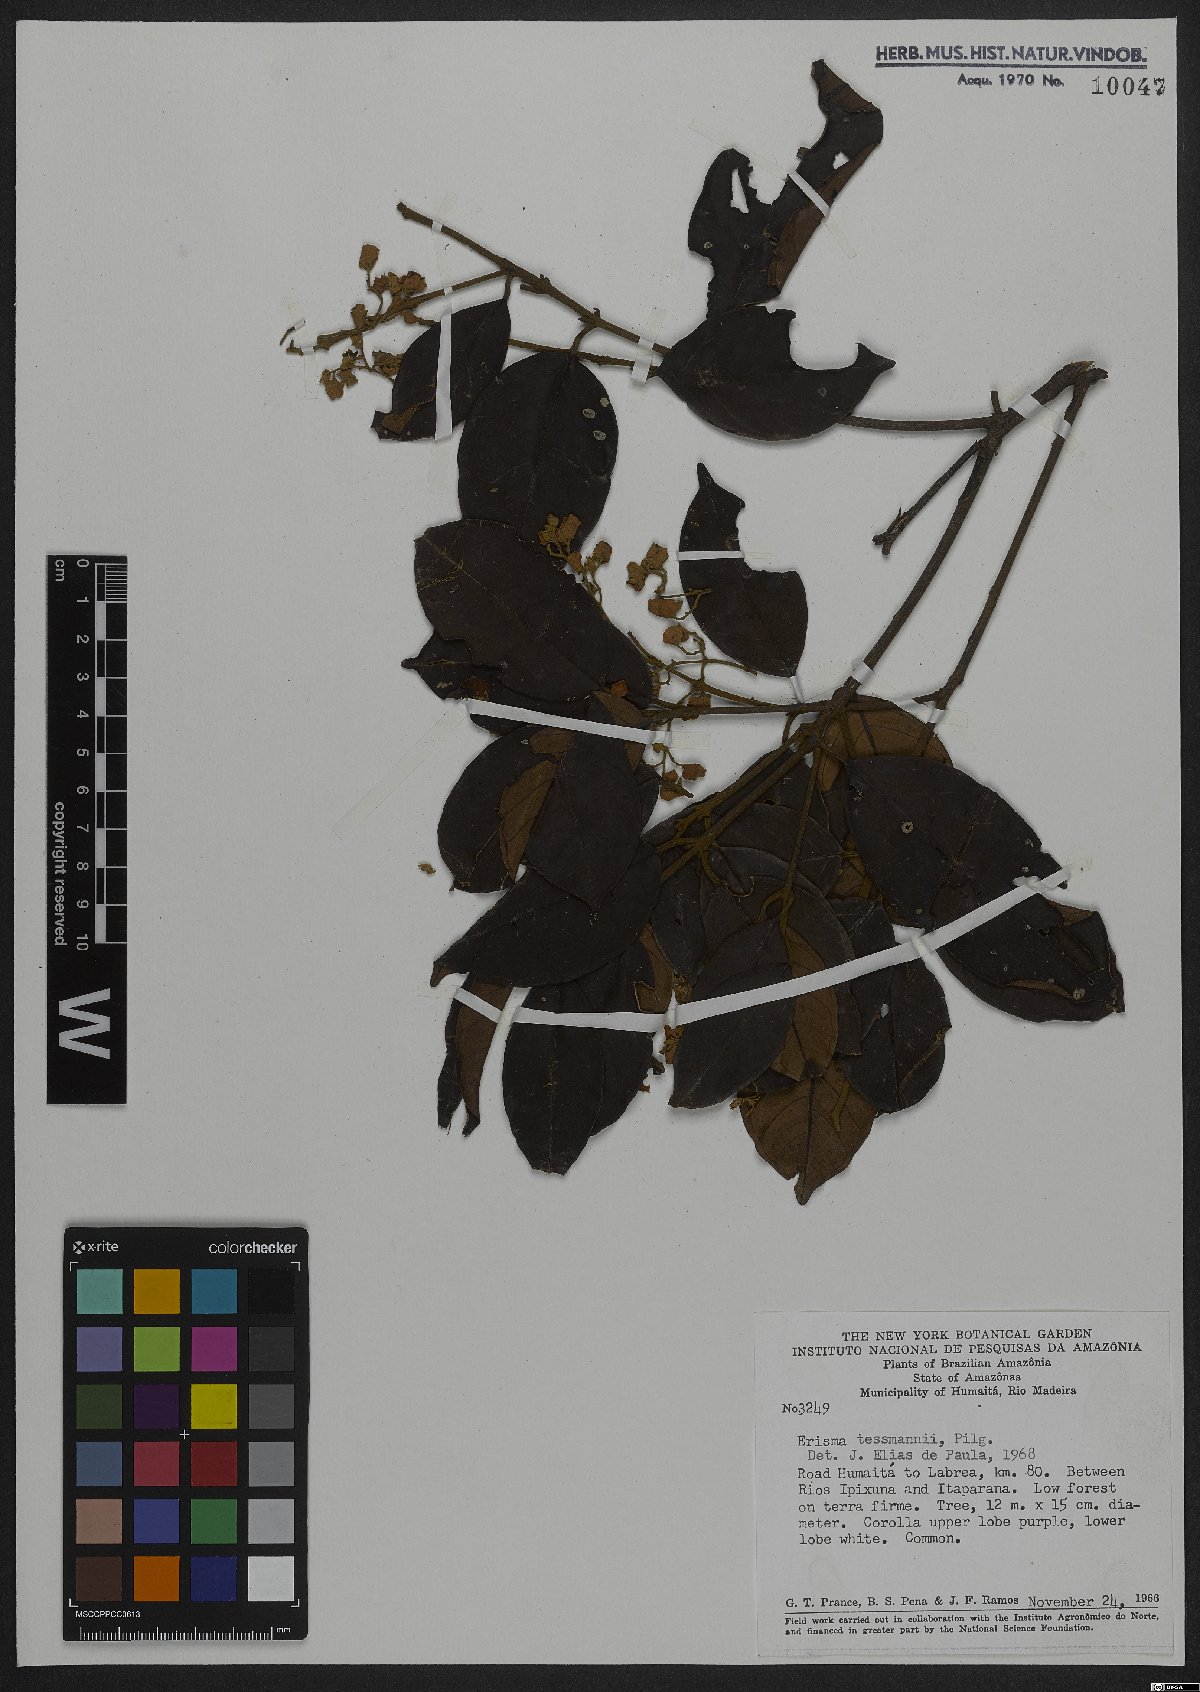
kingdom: Plantae
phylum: Tracheophyta
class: Magnoliopsida
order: Myrtales
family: Vochysiaceae
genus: Erisma
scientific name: Erisma tessmannii
